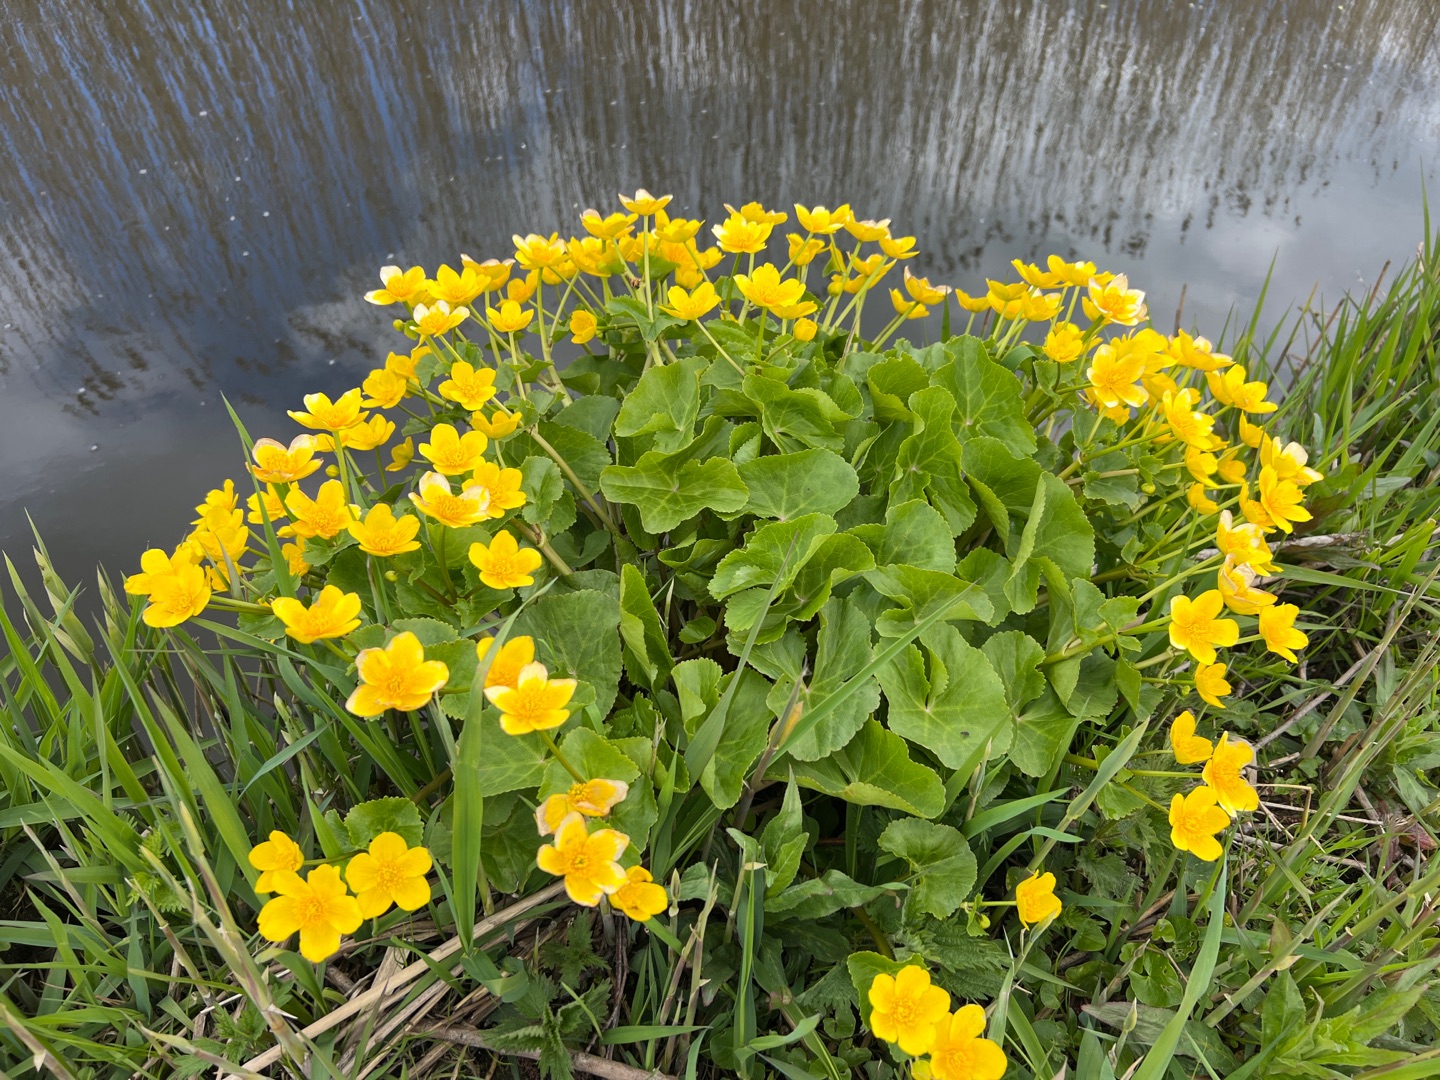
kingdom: Plantae
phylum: Tracheophyta
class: Magnoliopsida
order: Ranunculales
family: Ranunculaceae
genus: Caltha
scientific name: Caltha palustris
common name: Eng-kabbeleje
